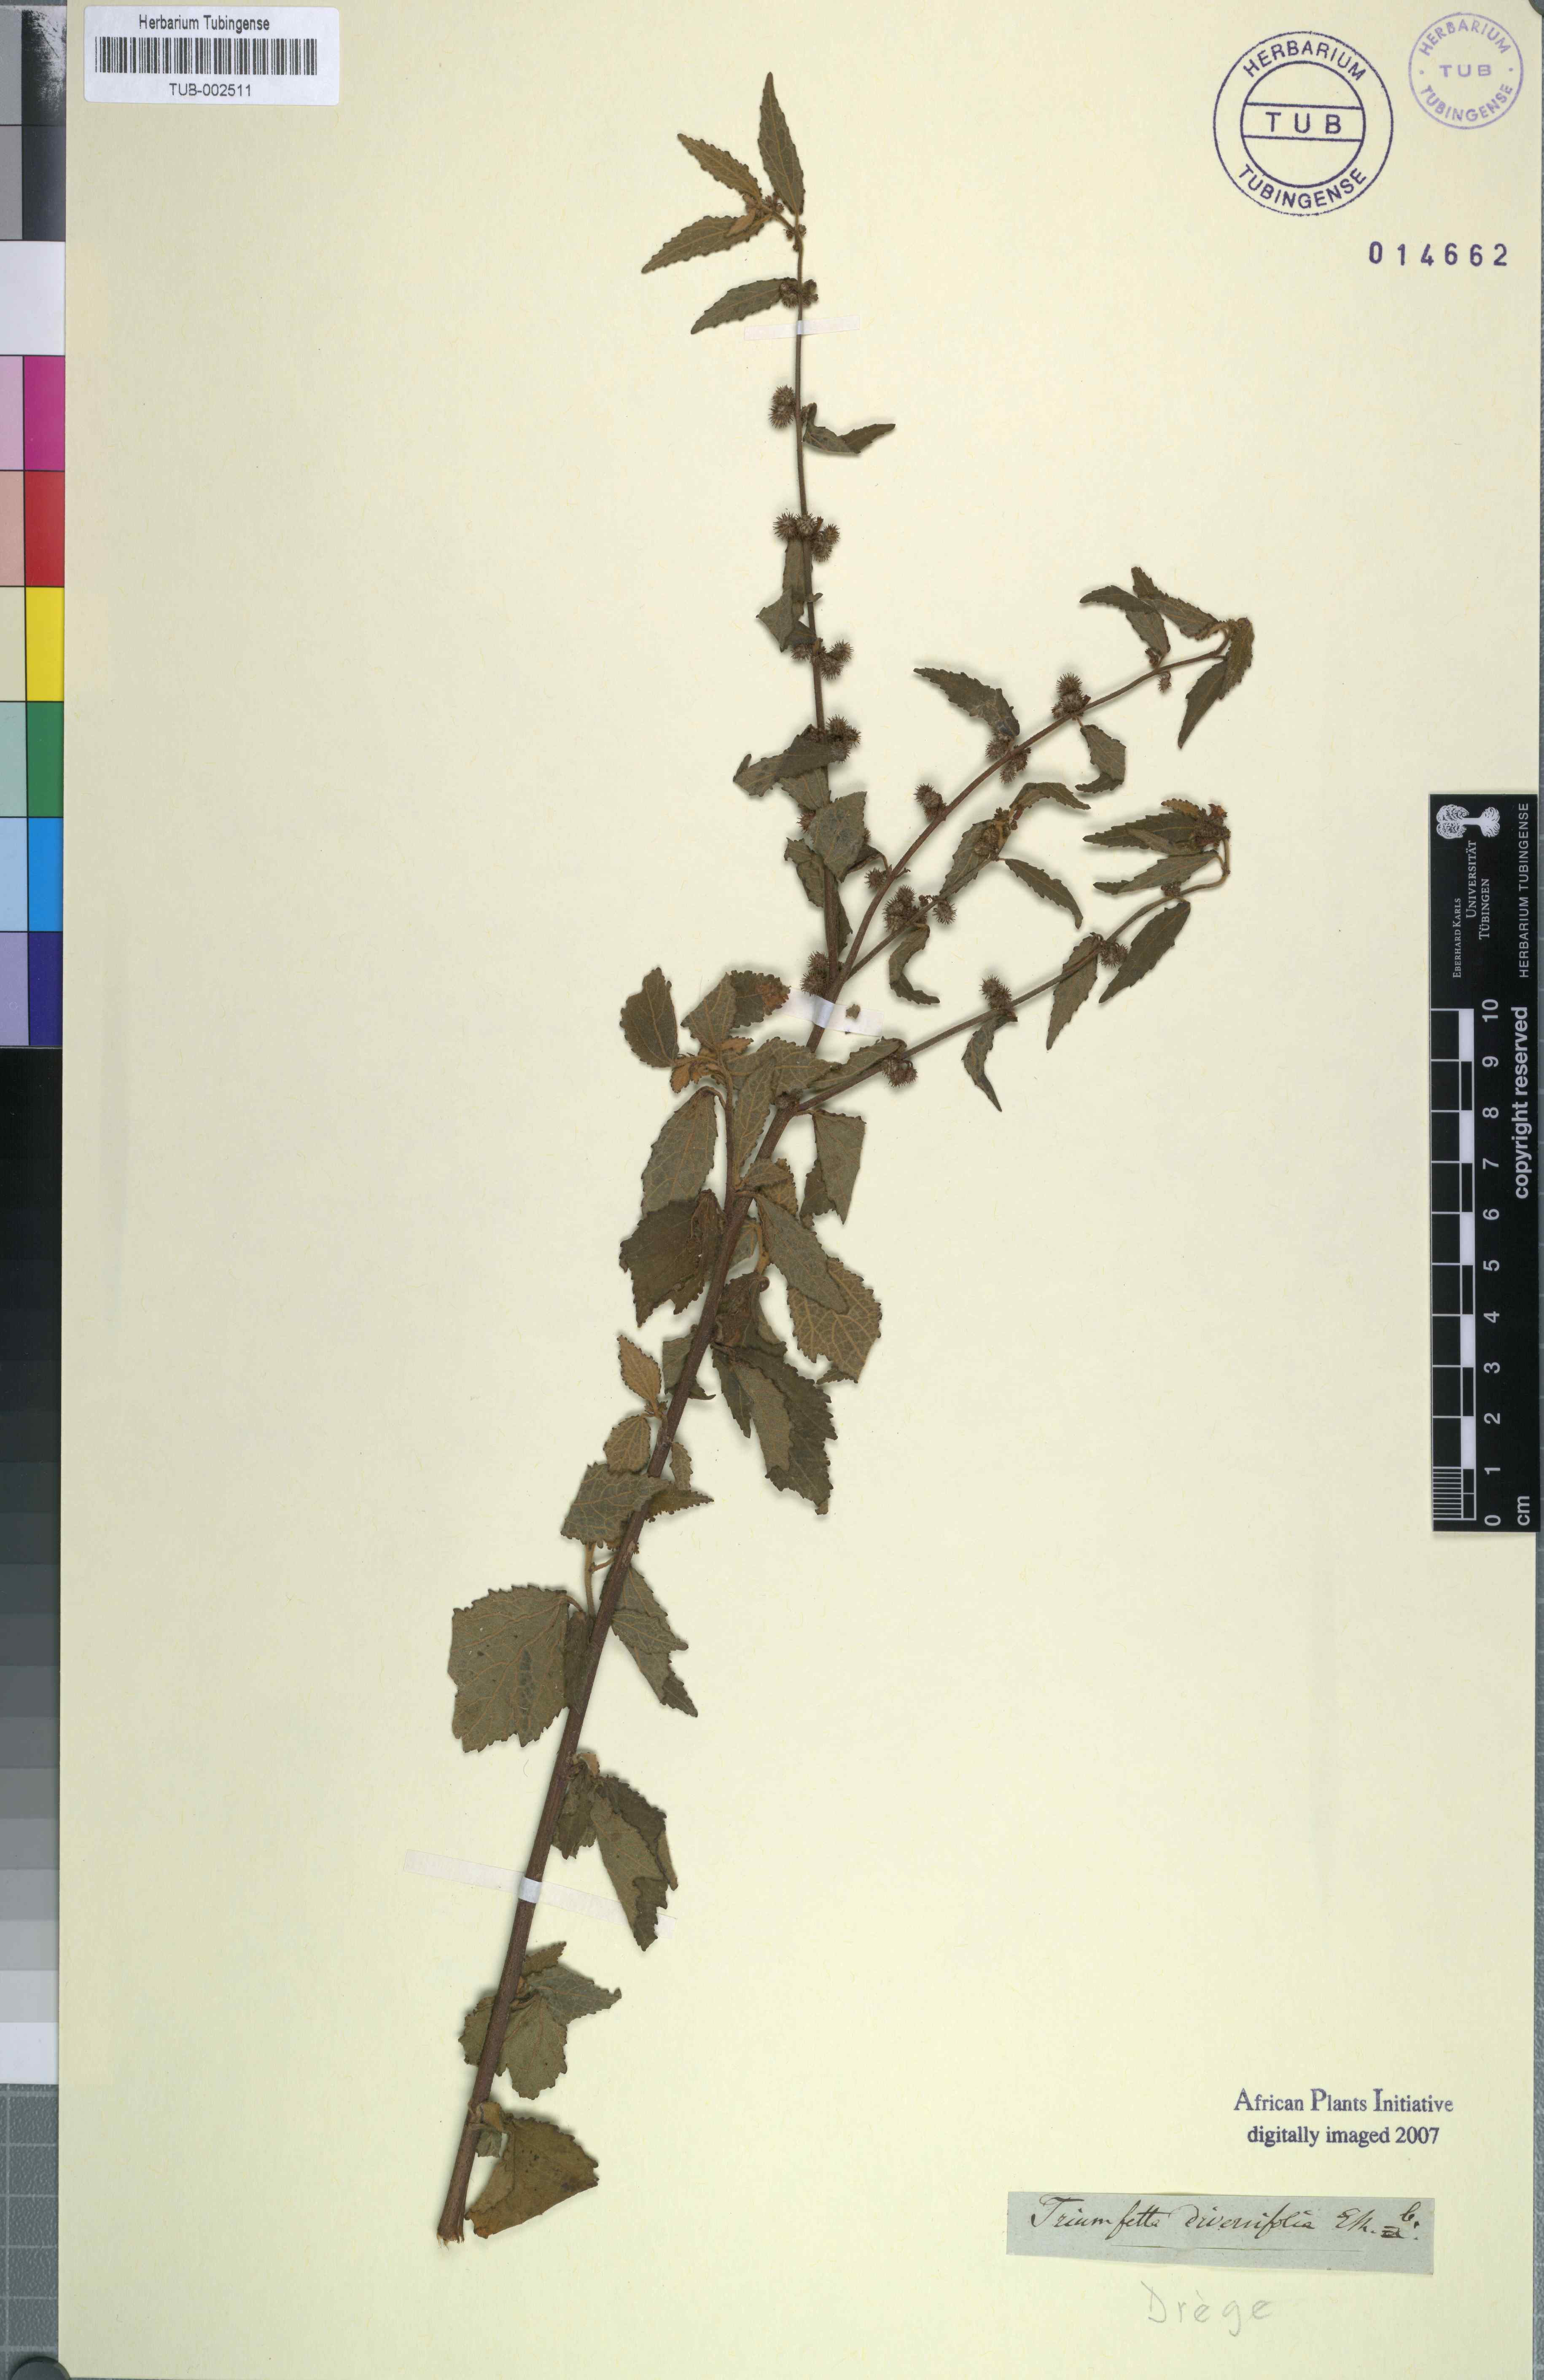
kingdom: Plantae
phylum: Tracheophyta
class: Magnoliopsida
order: Malvales
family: Malvaceae
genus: Triumfetta
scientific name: Triumfetta rhomboidea
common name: Diamond burbark
